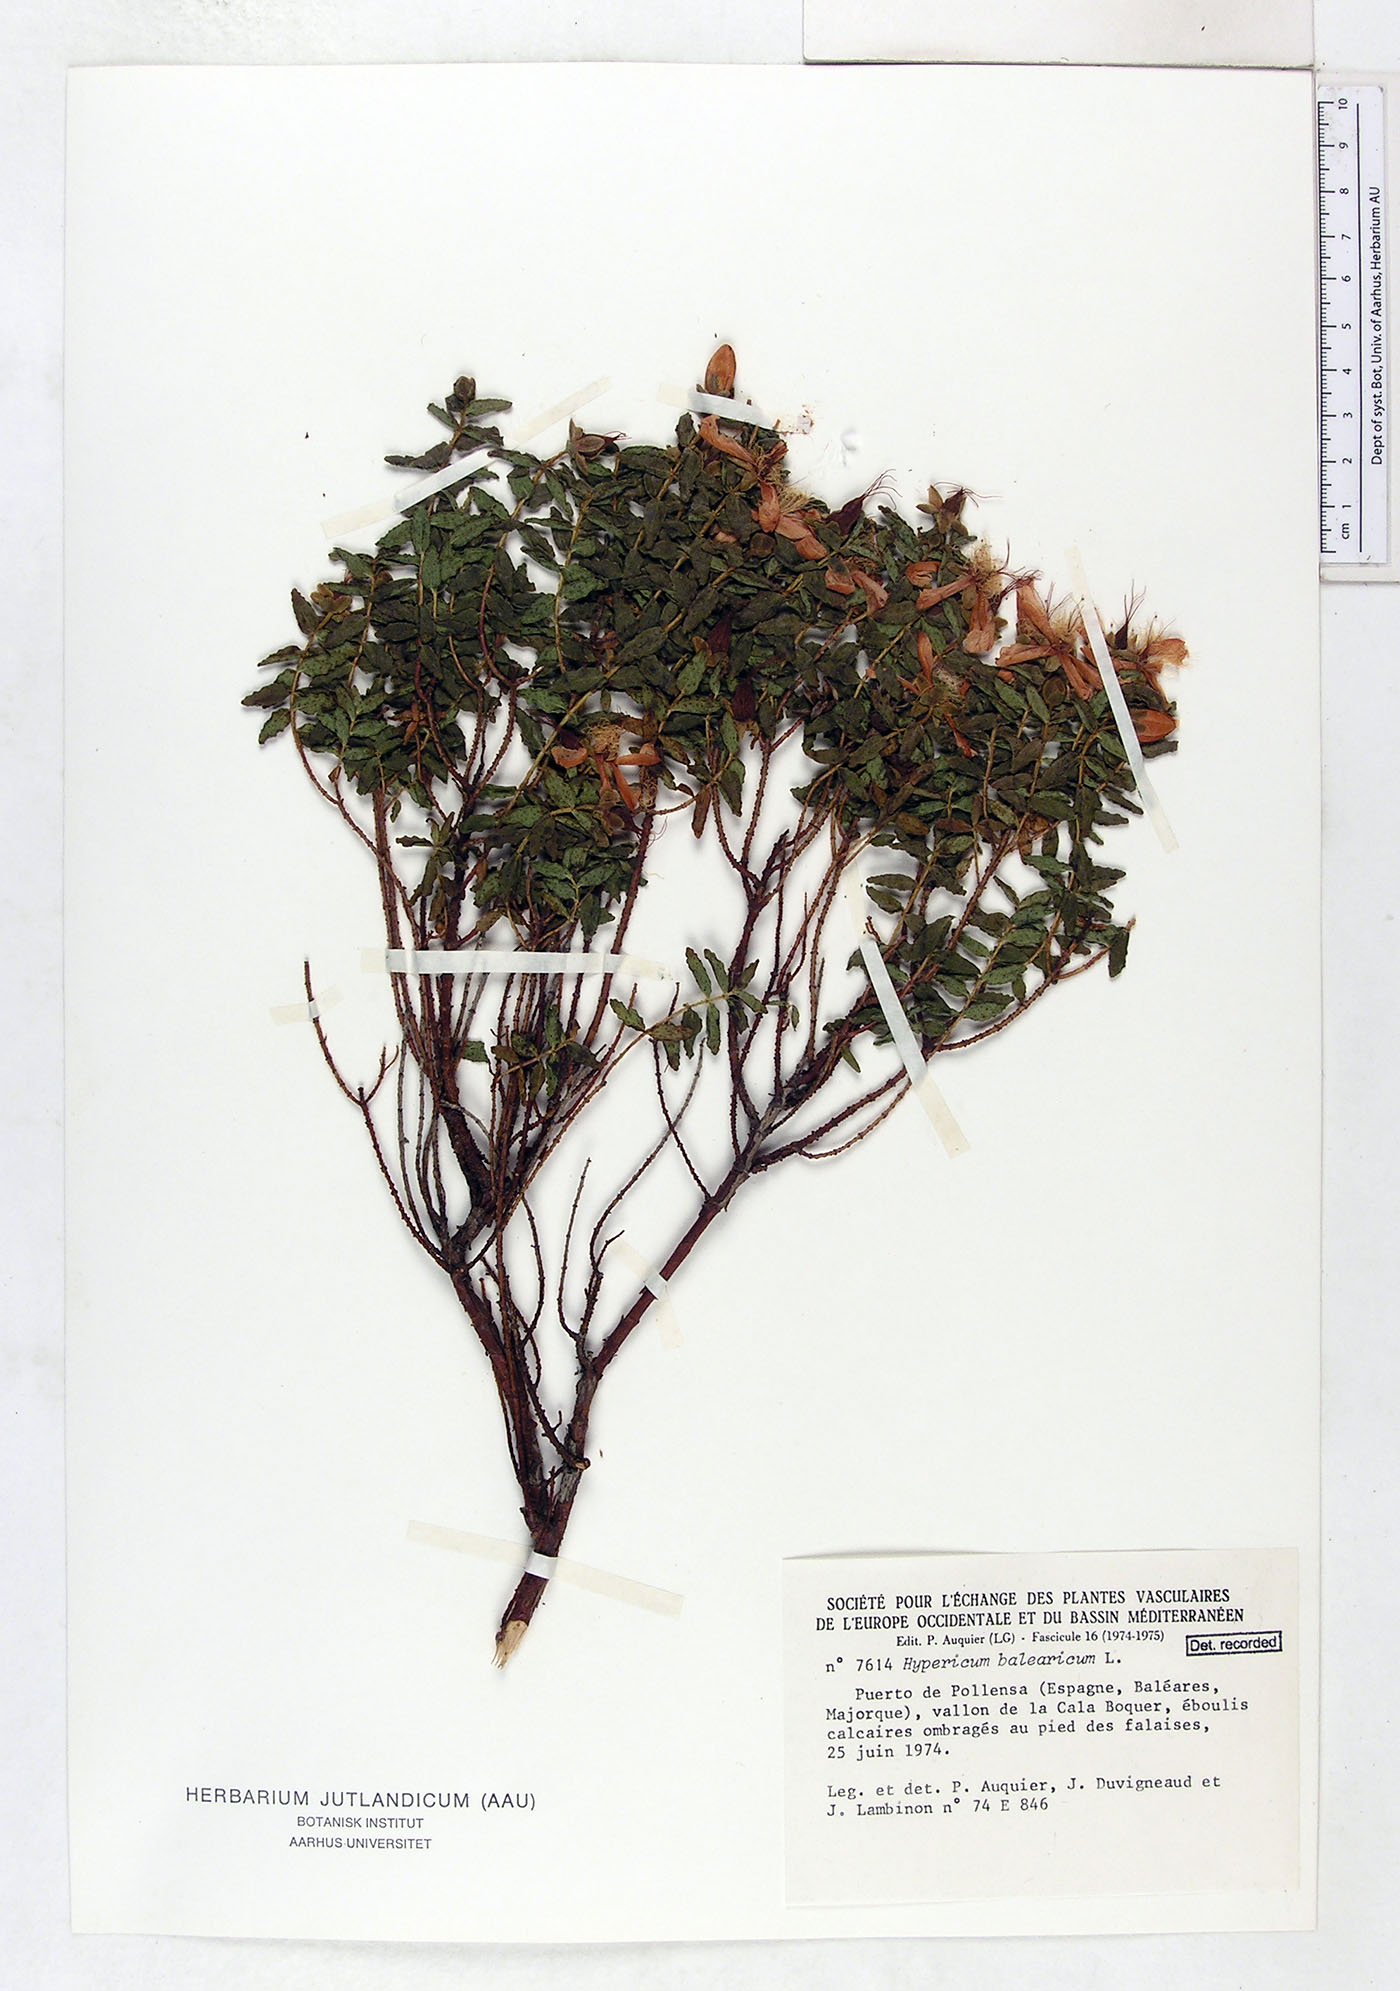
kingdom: Plantae
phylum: Tracheophyta
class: Magnoliopsida
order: Malpighiales
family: Hypericaceae
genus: Hypericum
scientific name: Hypericum balearicum
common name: Majorca st john's wort
